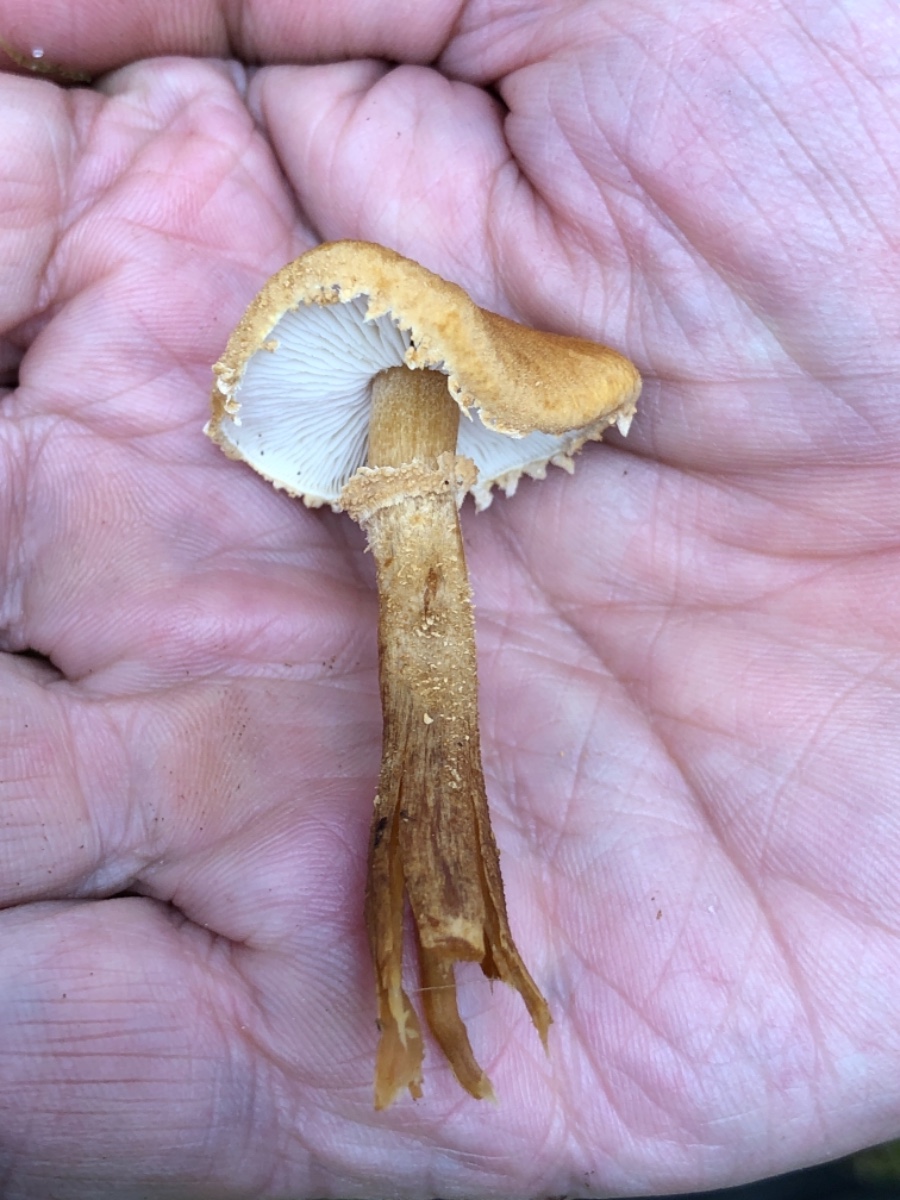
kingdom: Fungi
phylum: Basidiomycota
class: Agaricomycetes
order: Agaricales
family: Tricholomataceae
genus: Cystoderma
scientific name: Cystoderma amianthinum
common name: okkergul grynhat
